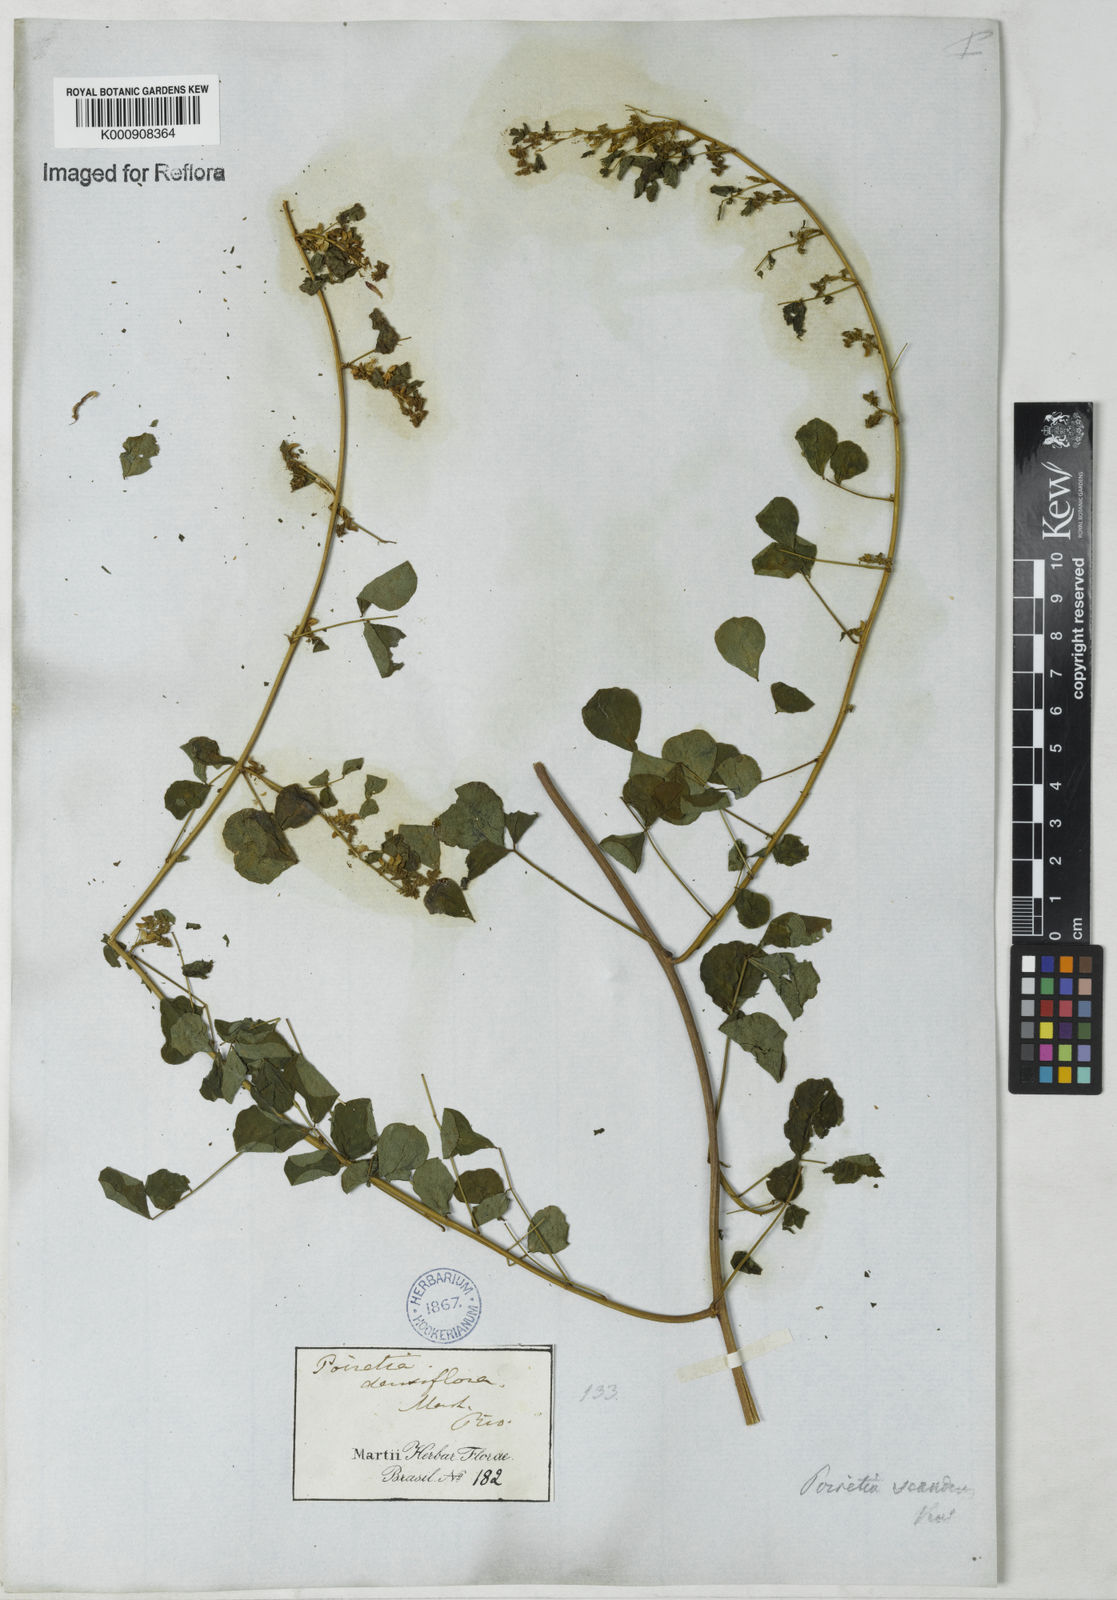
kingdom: Plantae
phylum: Tracheophyta
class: Magnoliopsida
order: Fabales
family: Fabaceae
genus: Poiretia
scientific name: Poiretia punctata
